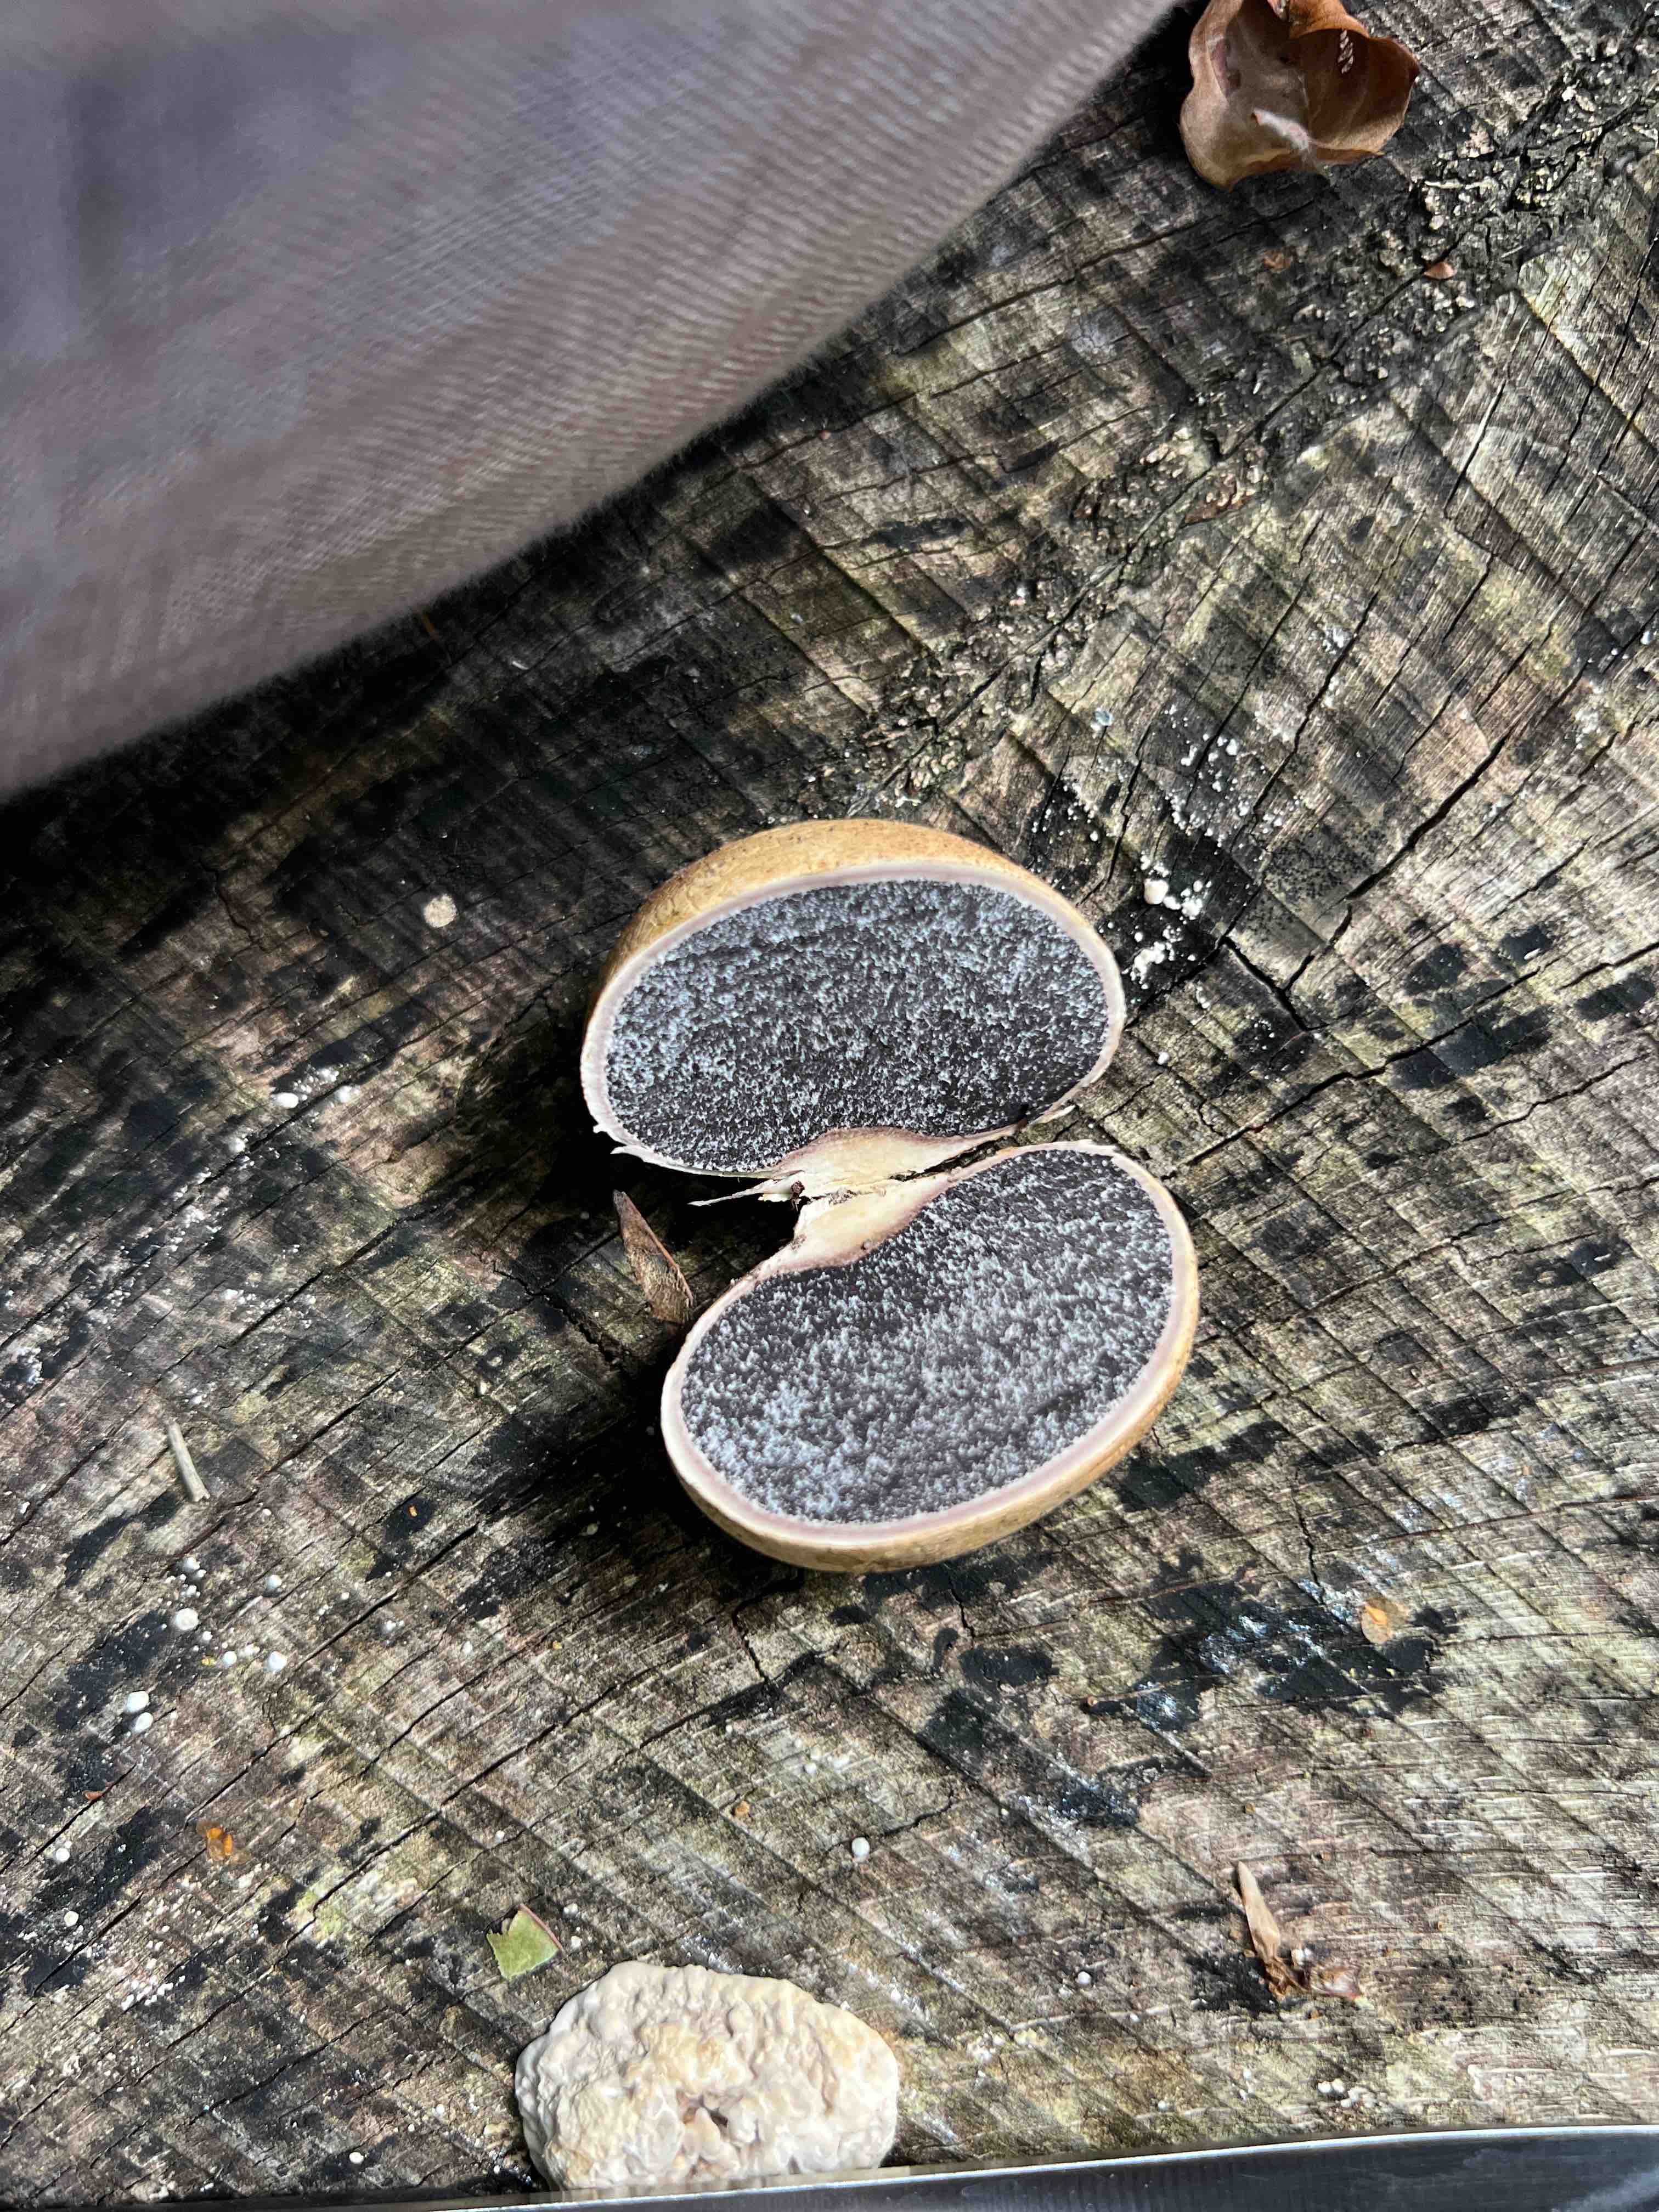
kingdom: Fungi
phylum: Basidiomycota
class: Agaricomycetes
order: Boletales
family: Sclerodermataceae
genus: Scleroderma
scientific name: Scleroderma citrinum
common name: almindelig bruskbold
